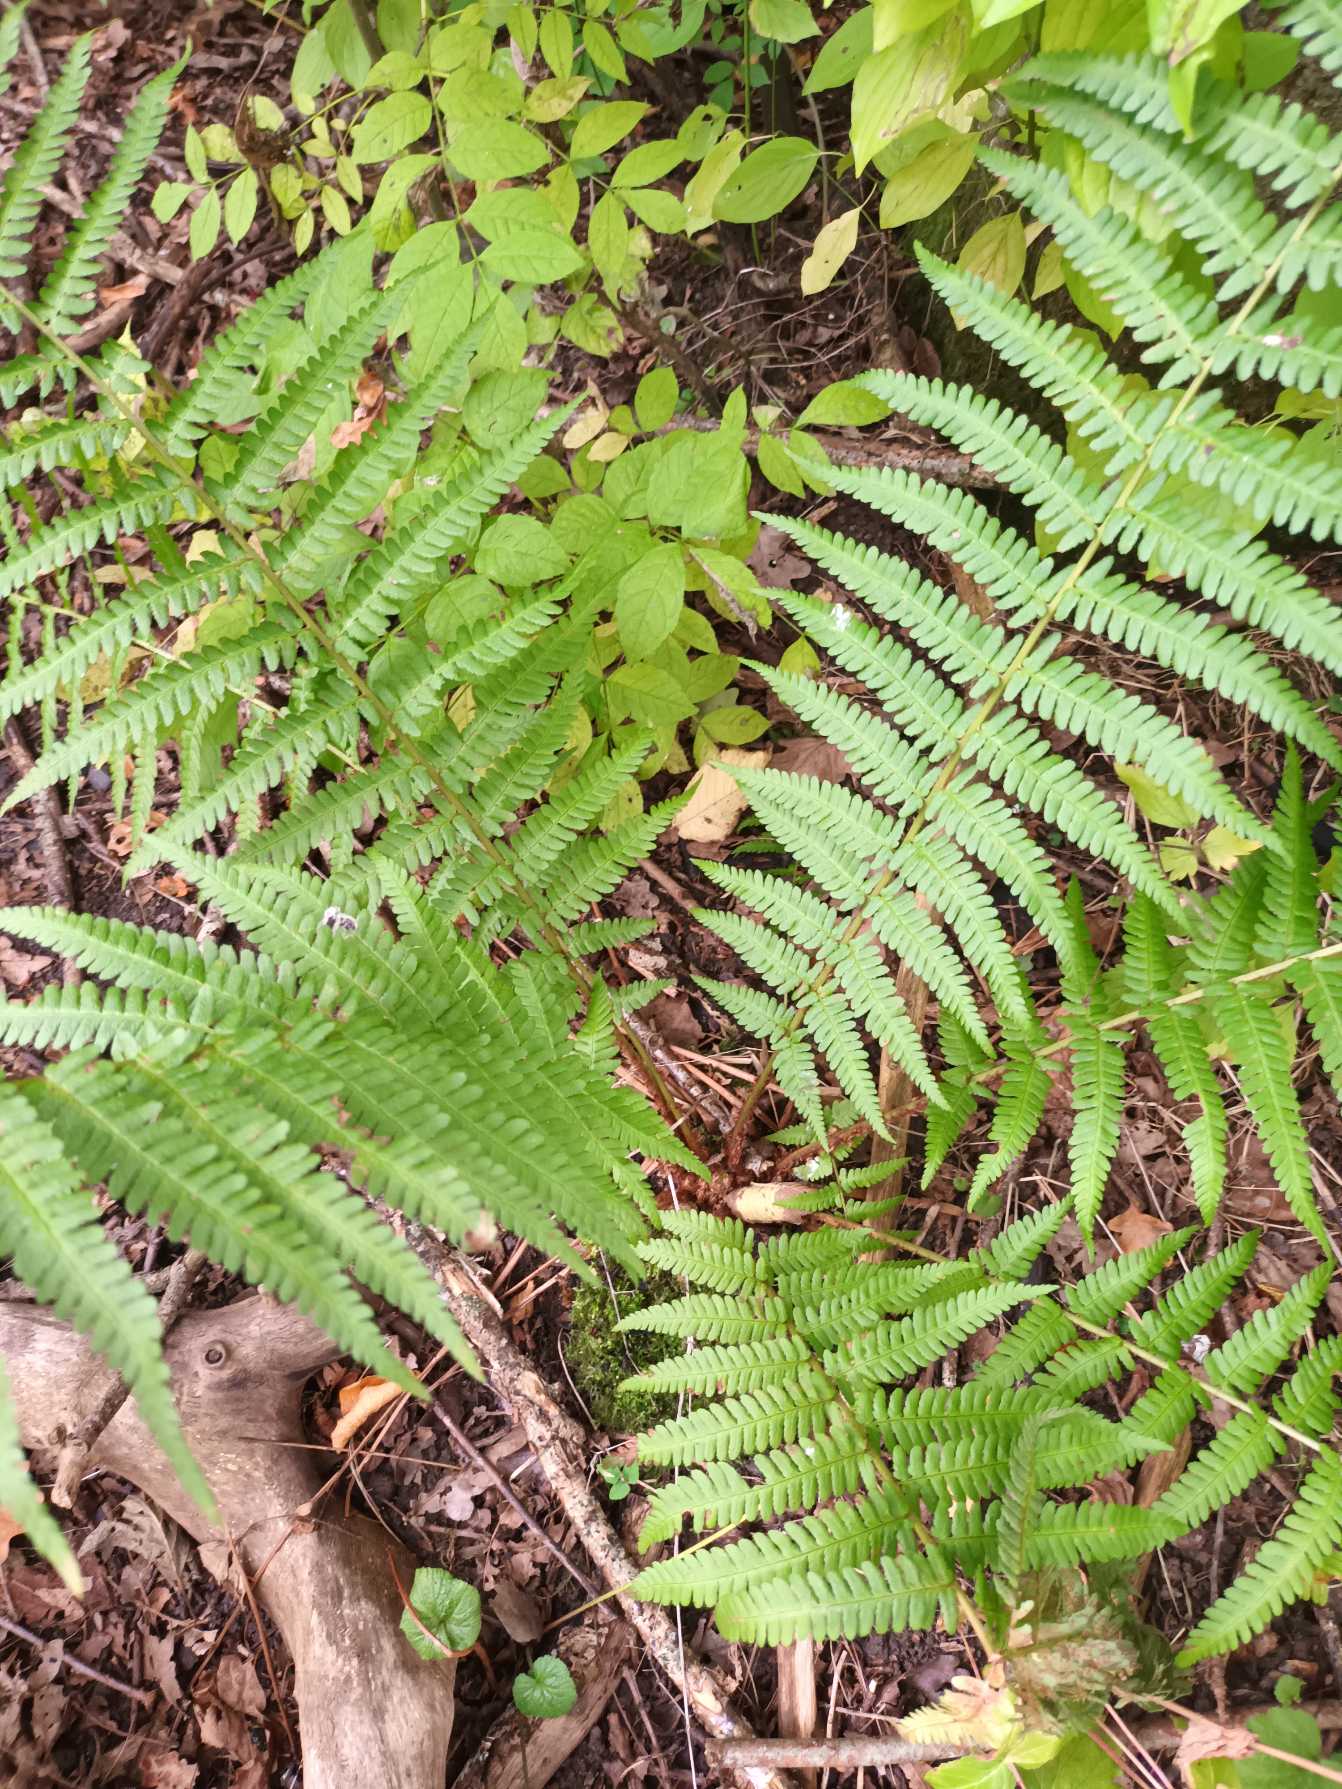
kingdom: Plantae
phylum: Tracheophyta
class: Polypodiopsida
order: Polypodiales
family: Dryopteridaceae
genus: Dryopteris
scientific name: Dryopteris filix-mas
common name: Almindelig mangeløv
